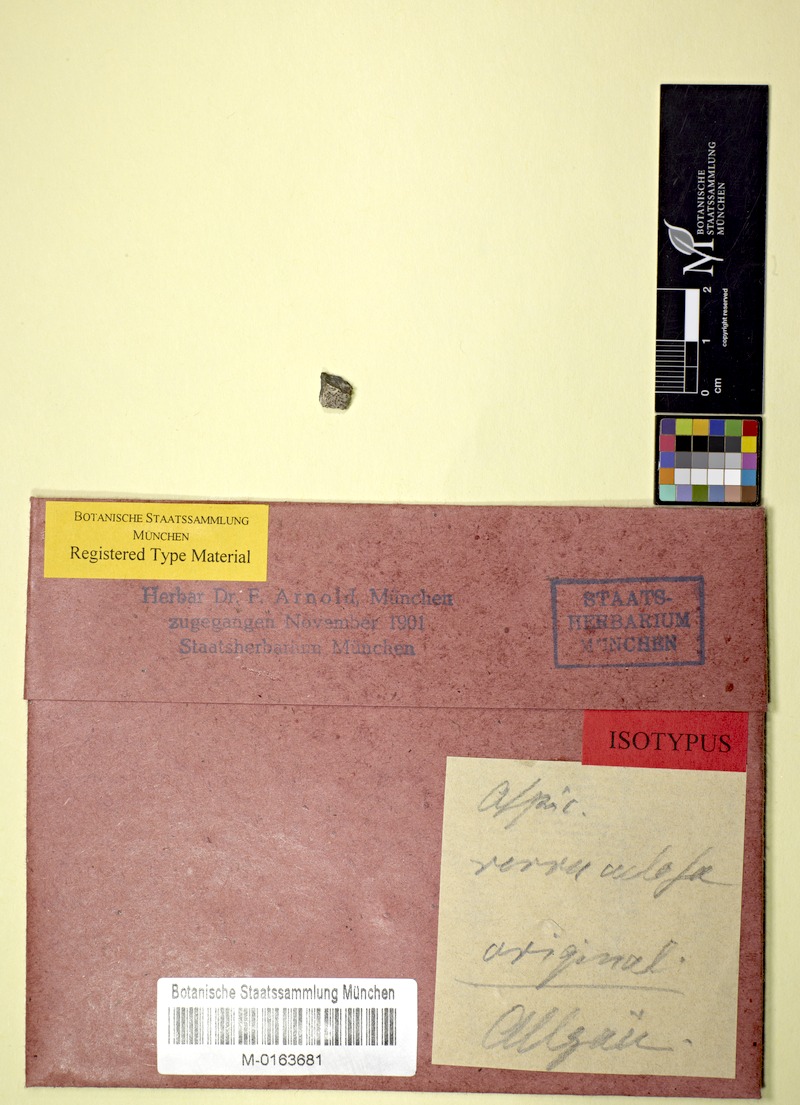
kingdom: Fungi
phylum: Ascomycota
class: Lecanoromycetes
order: Pertusariales
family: Megasporaceae
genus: Oxneriaria
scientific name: Oxneriaria verruculosa
